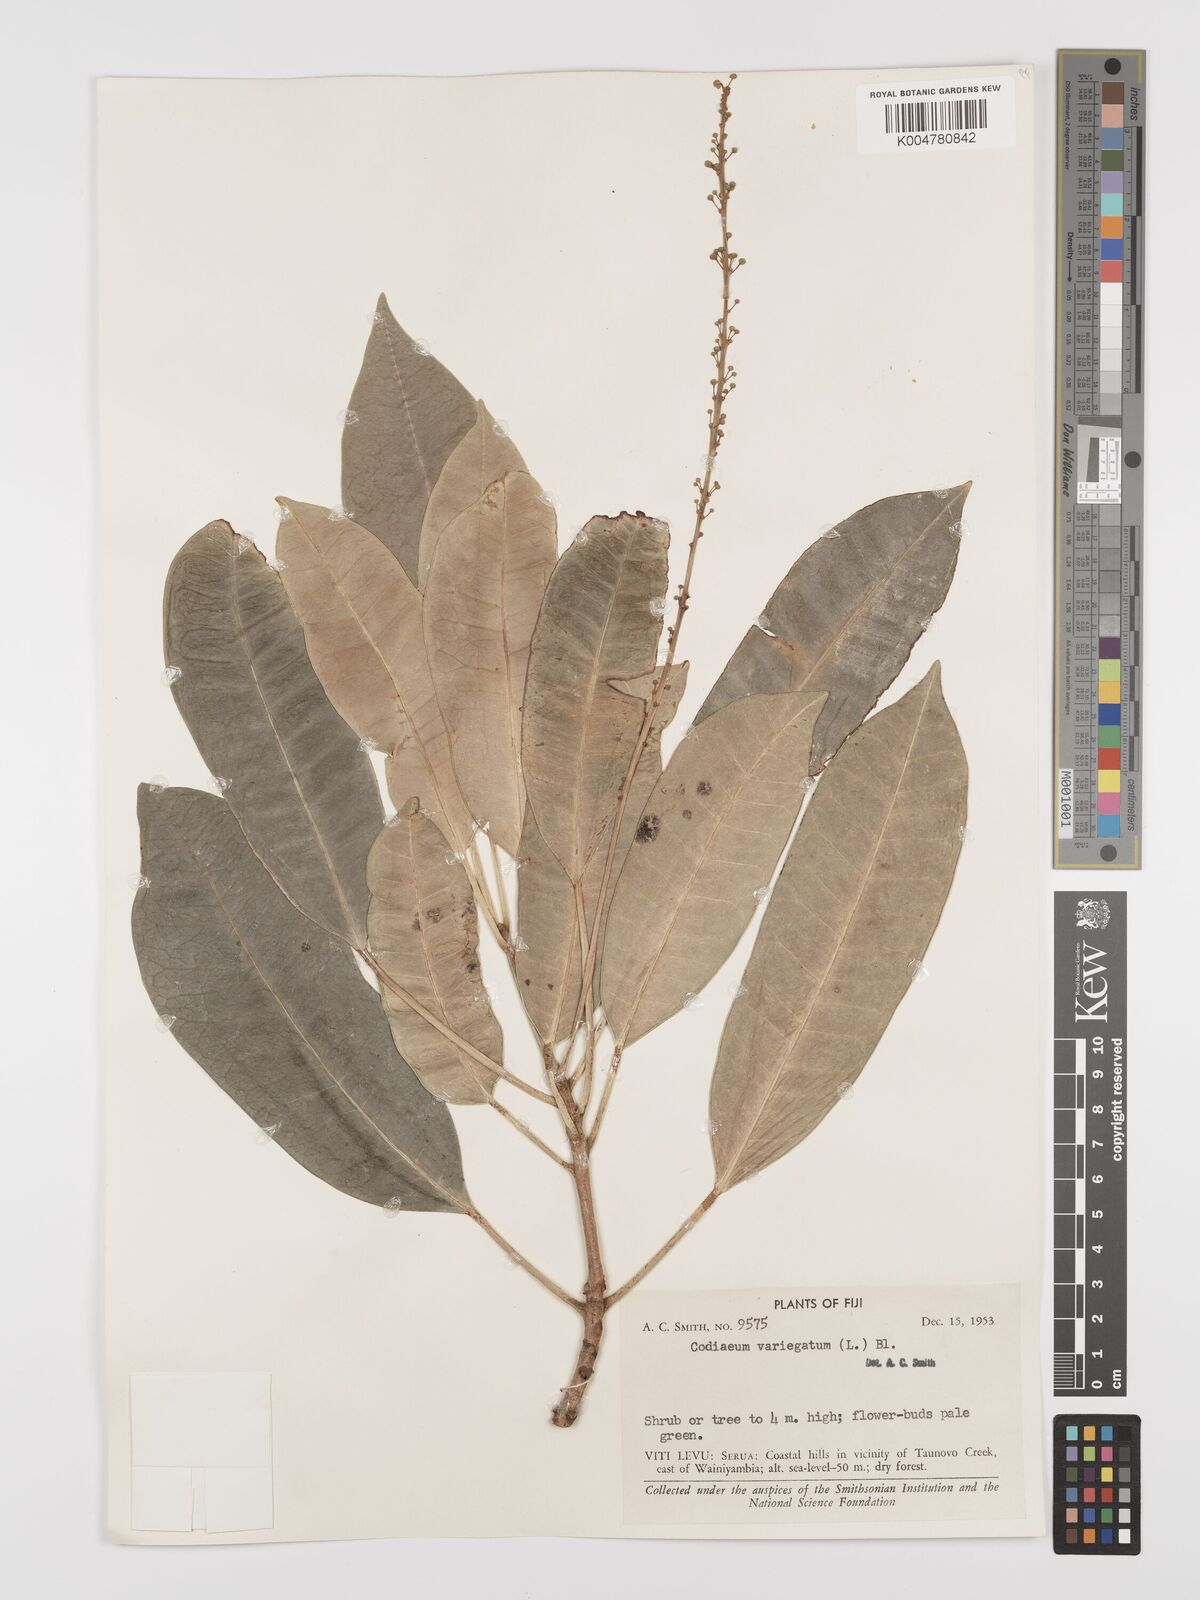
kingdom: Plantae
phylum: Tracheophyta
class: Magnoliopsida
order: Malpighiales
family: Euphorbiaceae
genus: Codiaeum
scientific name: Codiaeum variegatum
